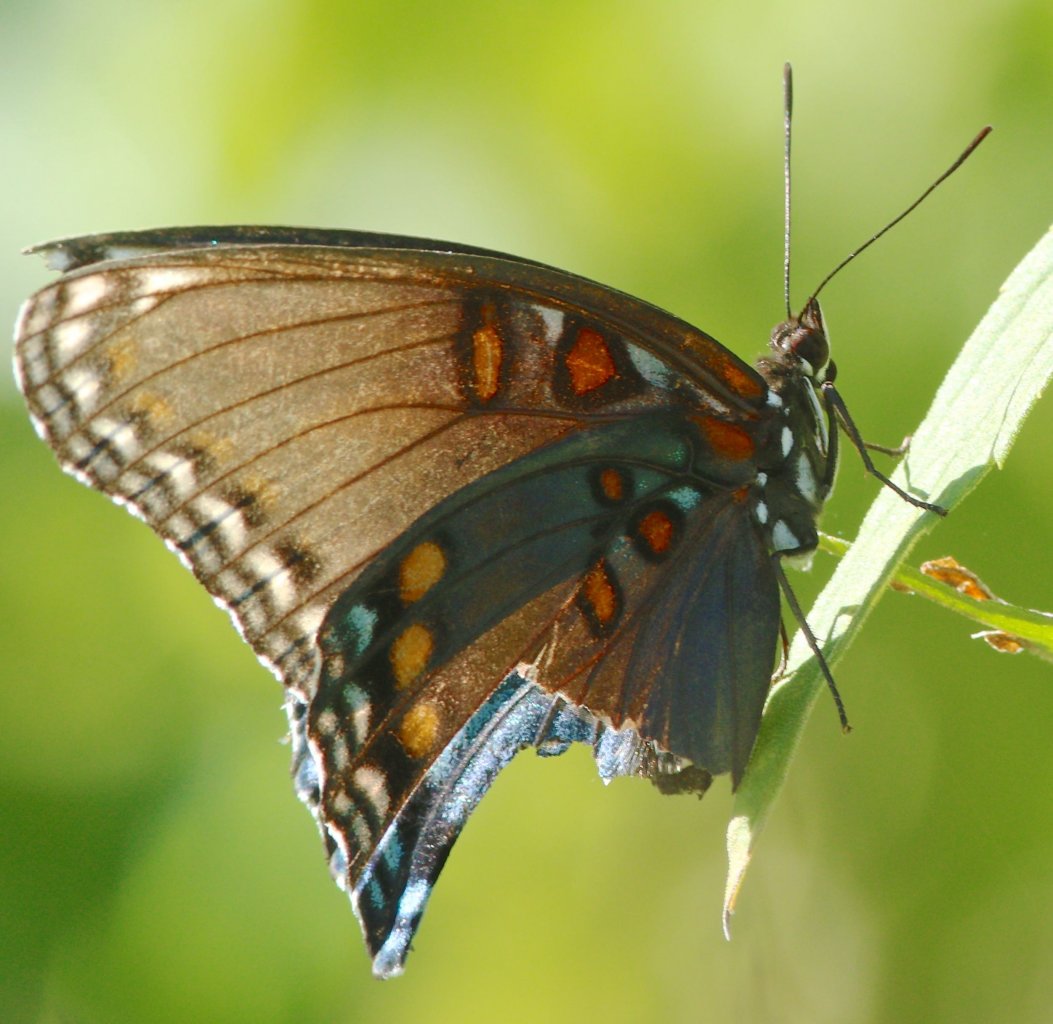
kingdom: Animalia
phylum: Arthropoda
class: Insecta
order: Lepidoptera
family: Nymphalidae
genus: Limenitis
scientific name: Limenitis astyanax
